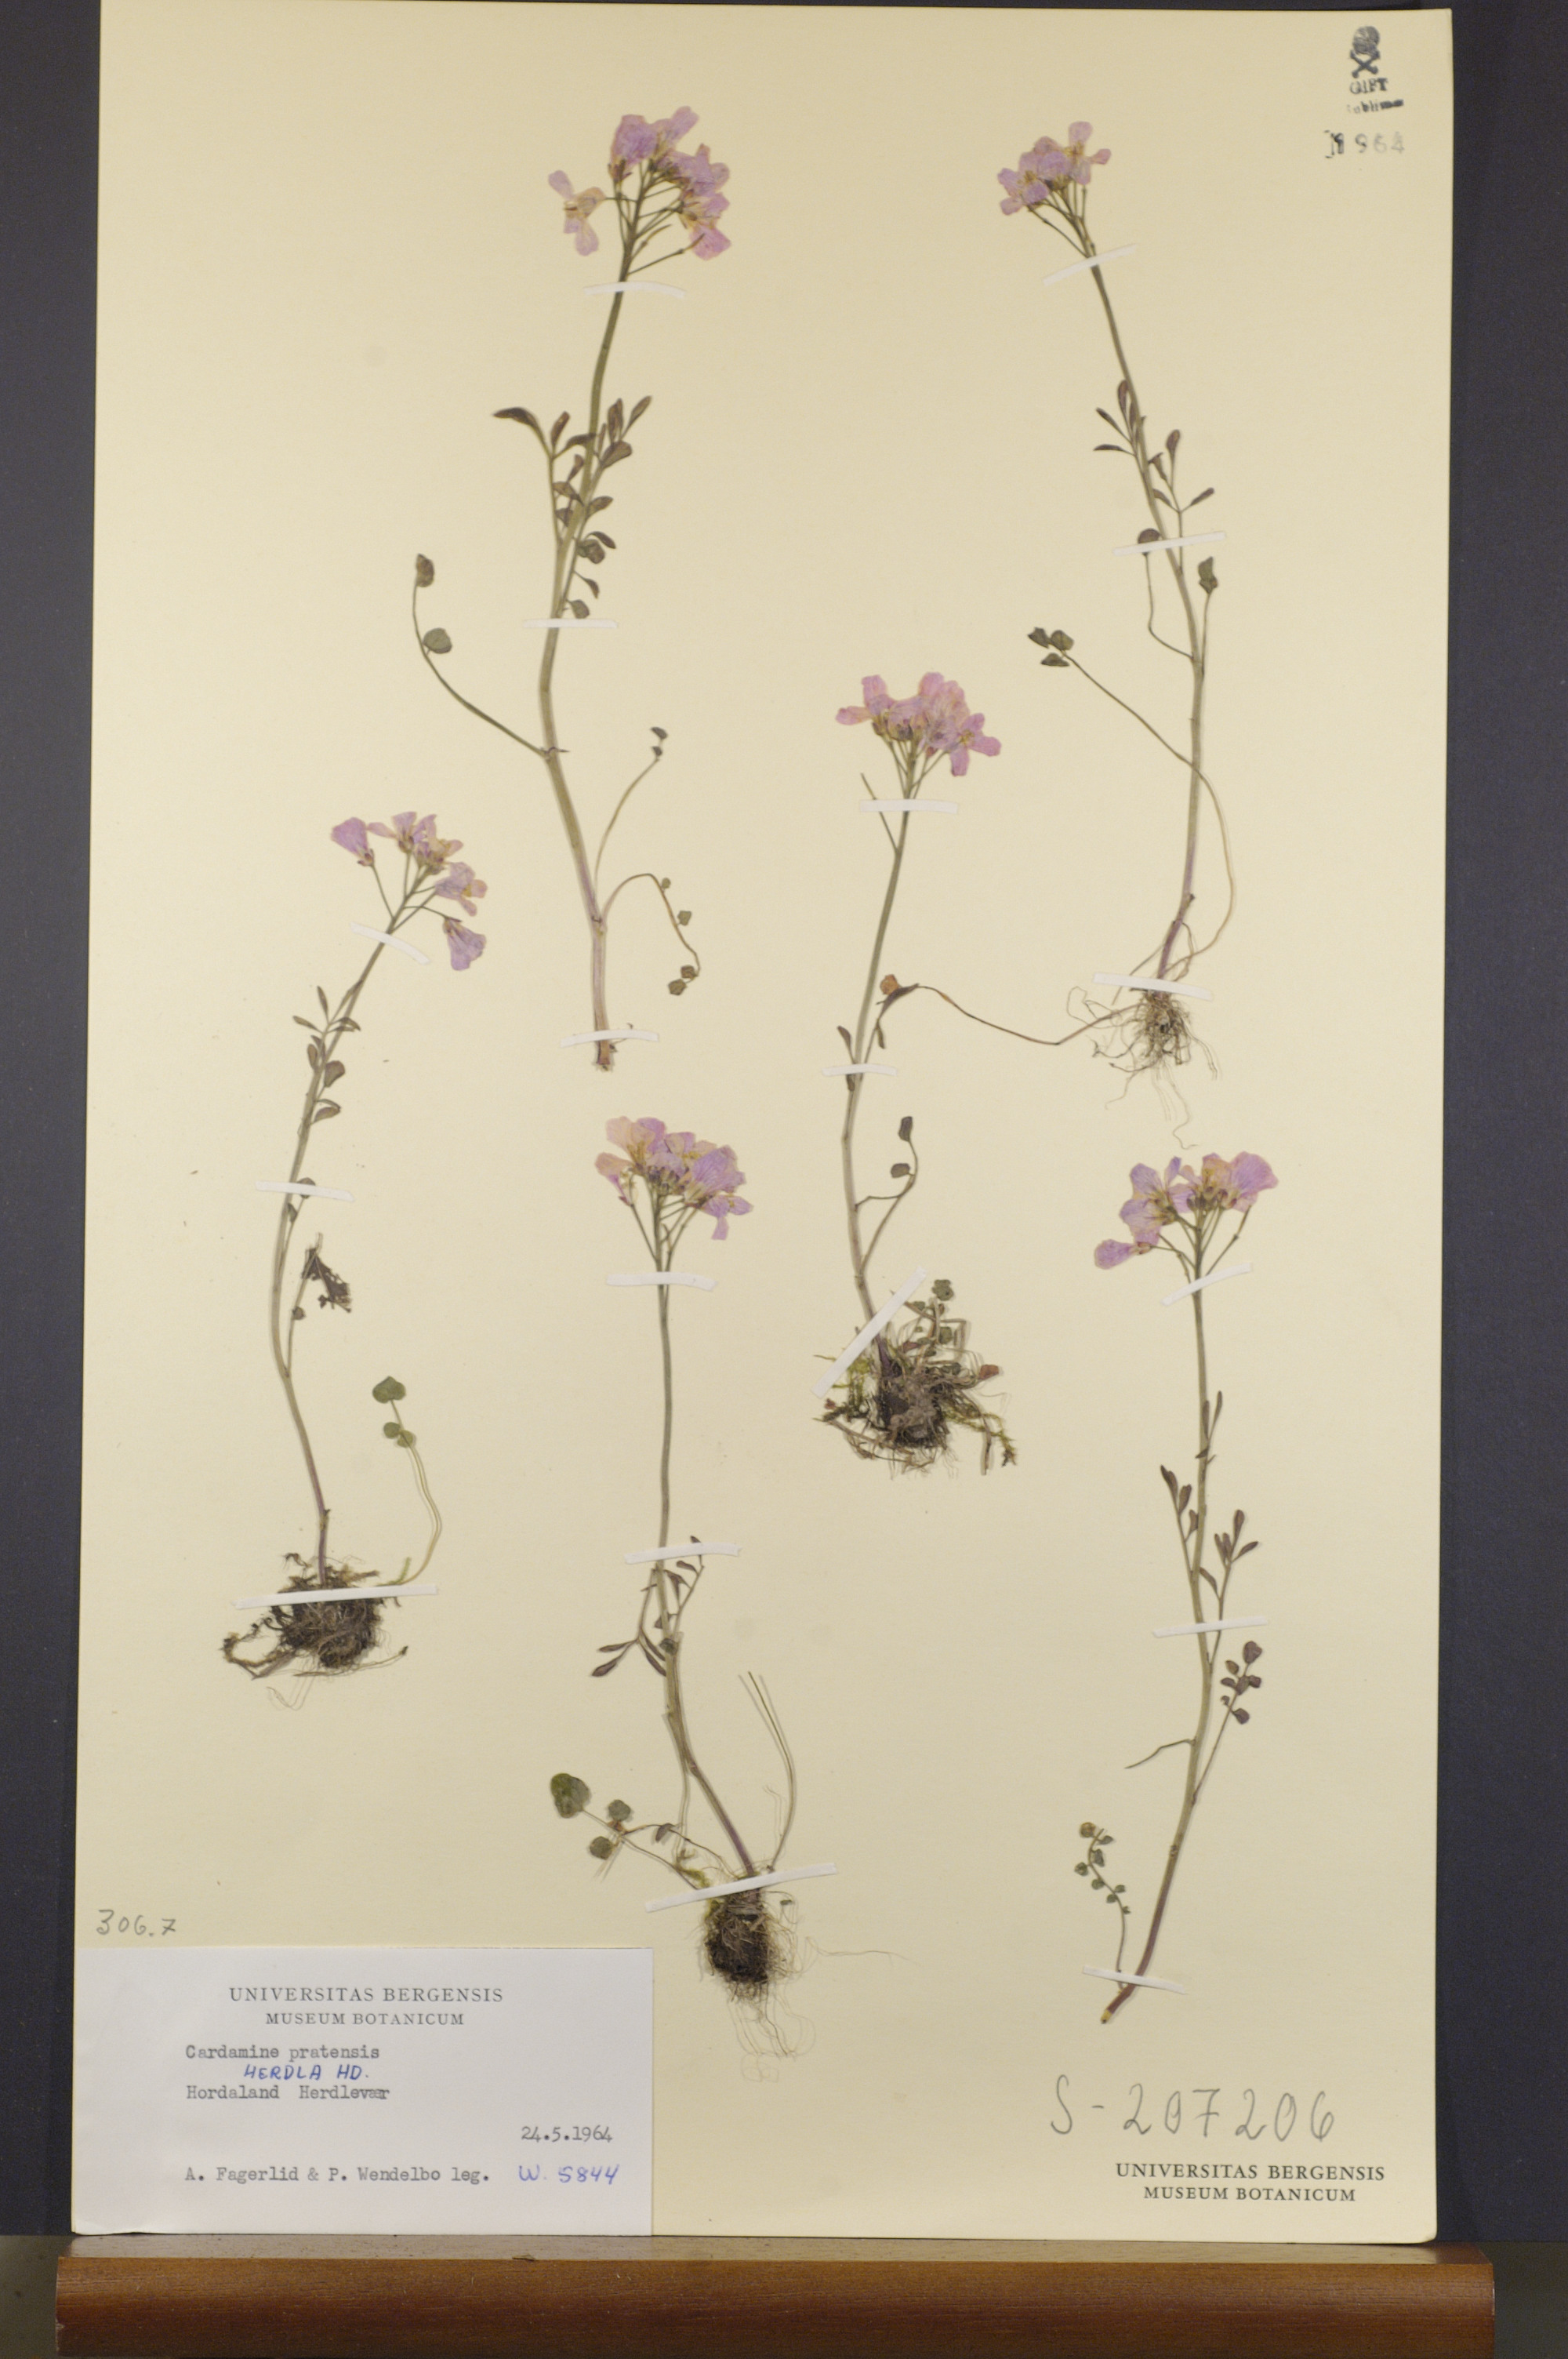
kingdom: Plantae
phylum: Tracheophyta
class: Magnoliopsida
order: Brassicales
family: Brassicaceae
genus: Cardamine
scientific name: Cardamine pratensis
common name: Cuckoo flower
